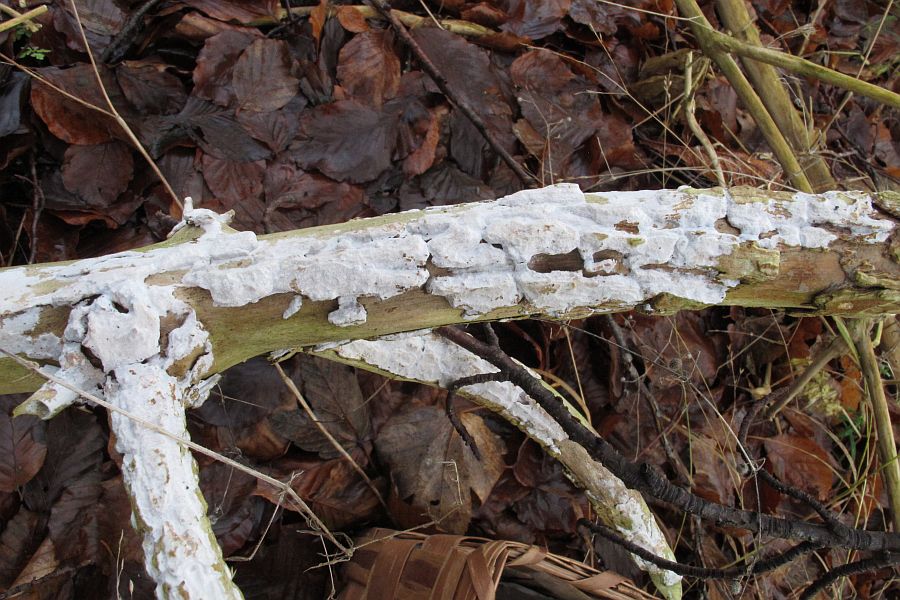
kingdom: Fungi
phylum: Basidiomycota
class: Agaricomycetes
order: Corticiales
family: Corticiaceae
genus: Lyomyces
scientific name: Lyomyces sambuci
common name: almindelig hyldehinde
